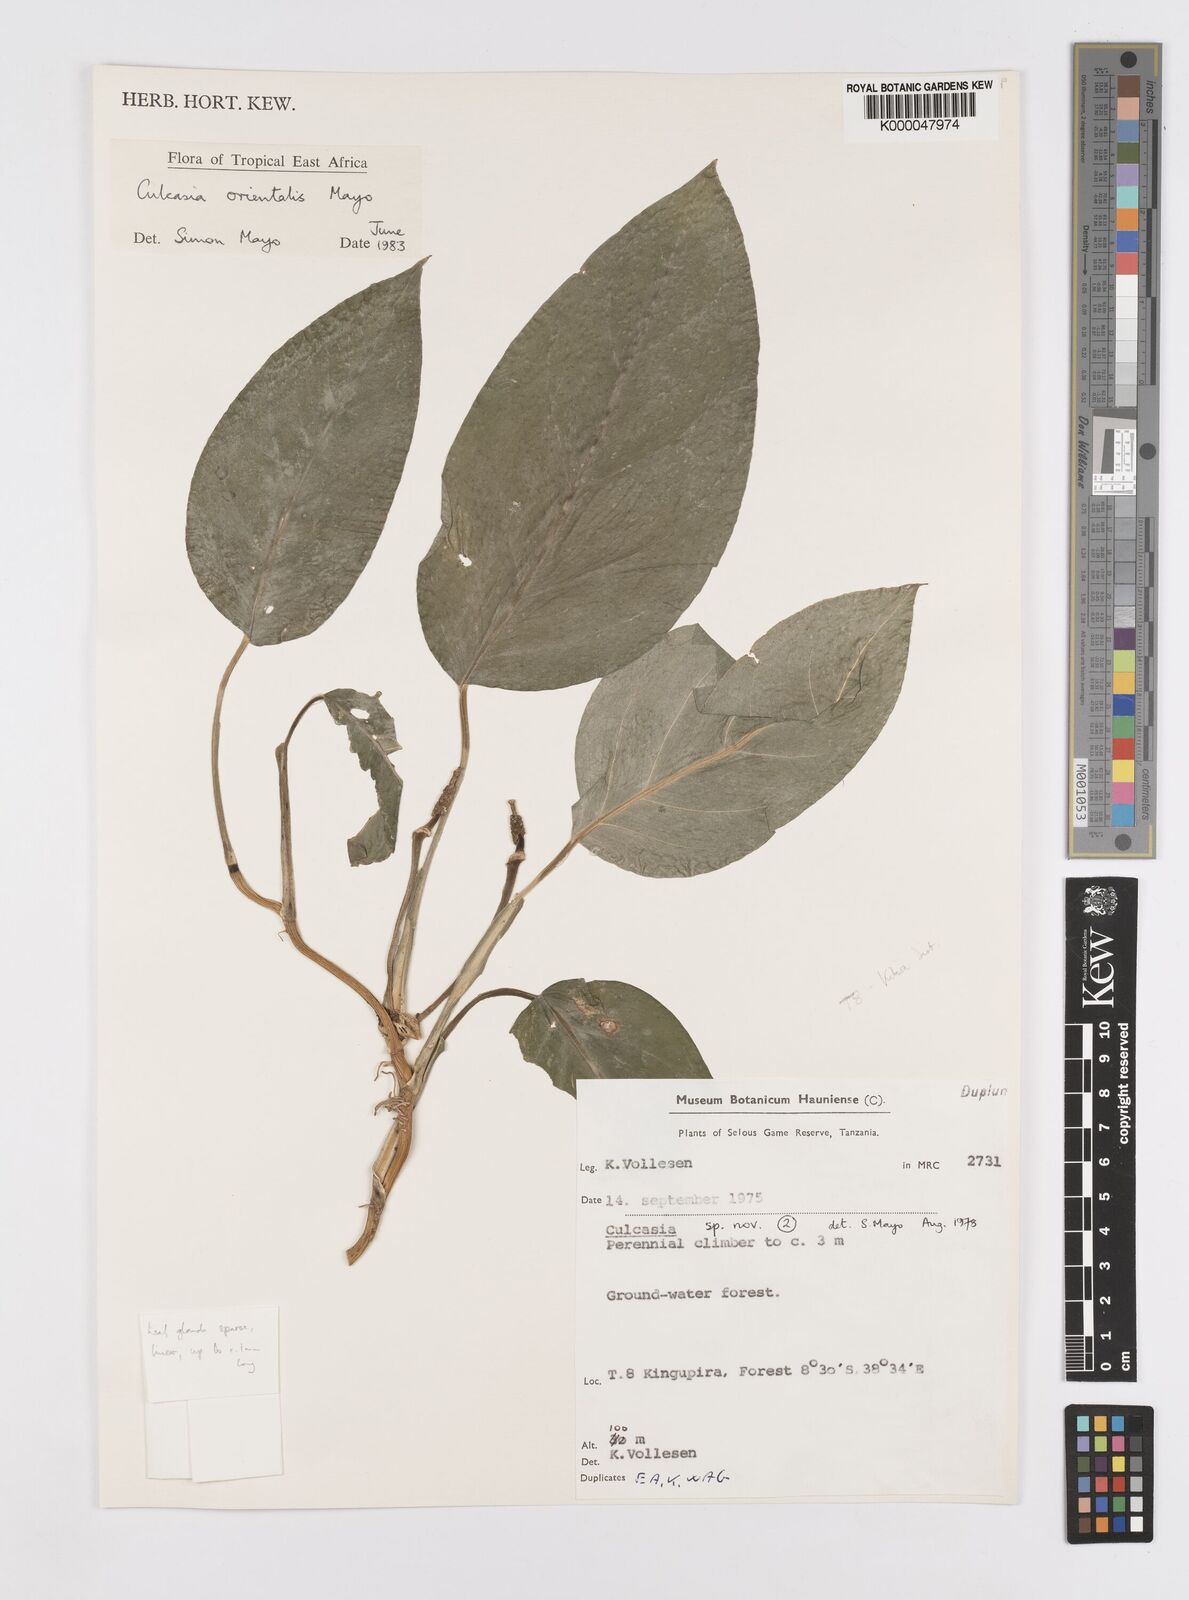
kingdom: Plantae
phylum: Tracheophyta
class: Liliopsida
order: Alismatales
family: Araceae
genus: Culcasia
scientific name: Culcasia orientalis
